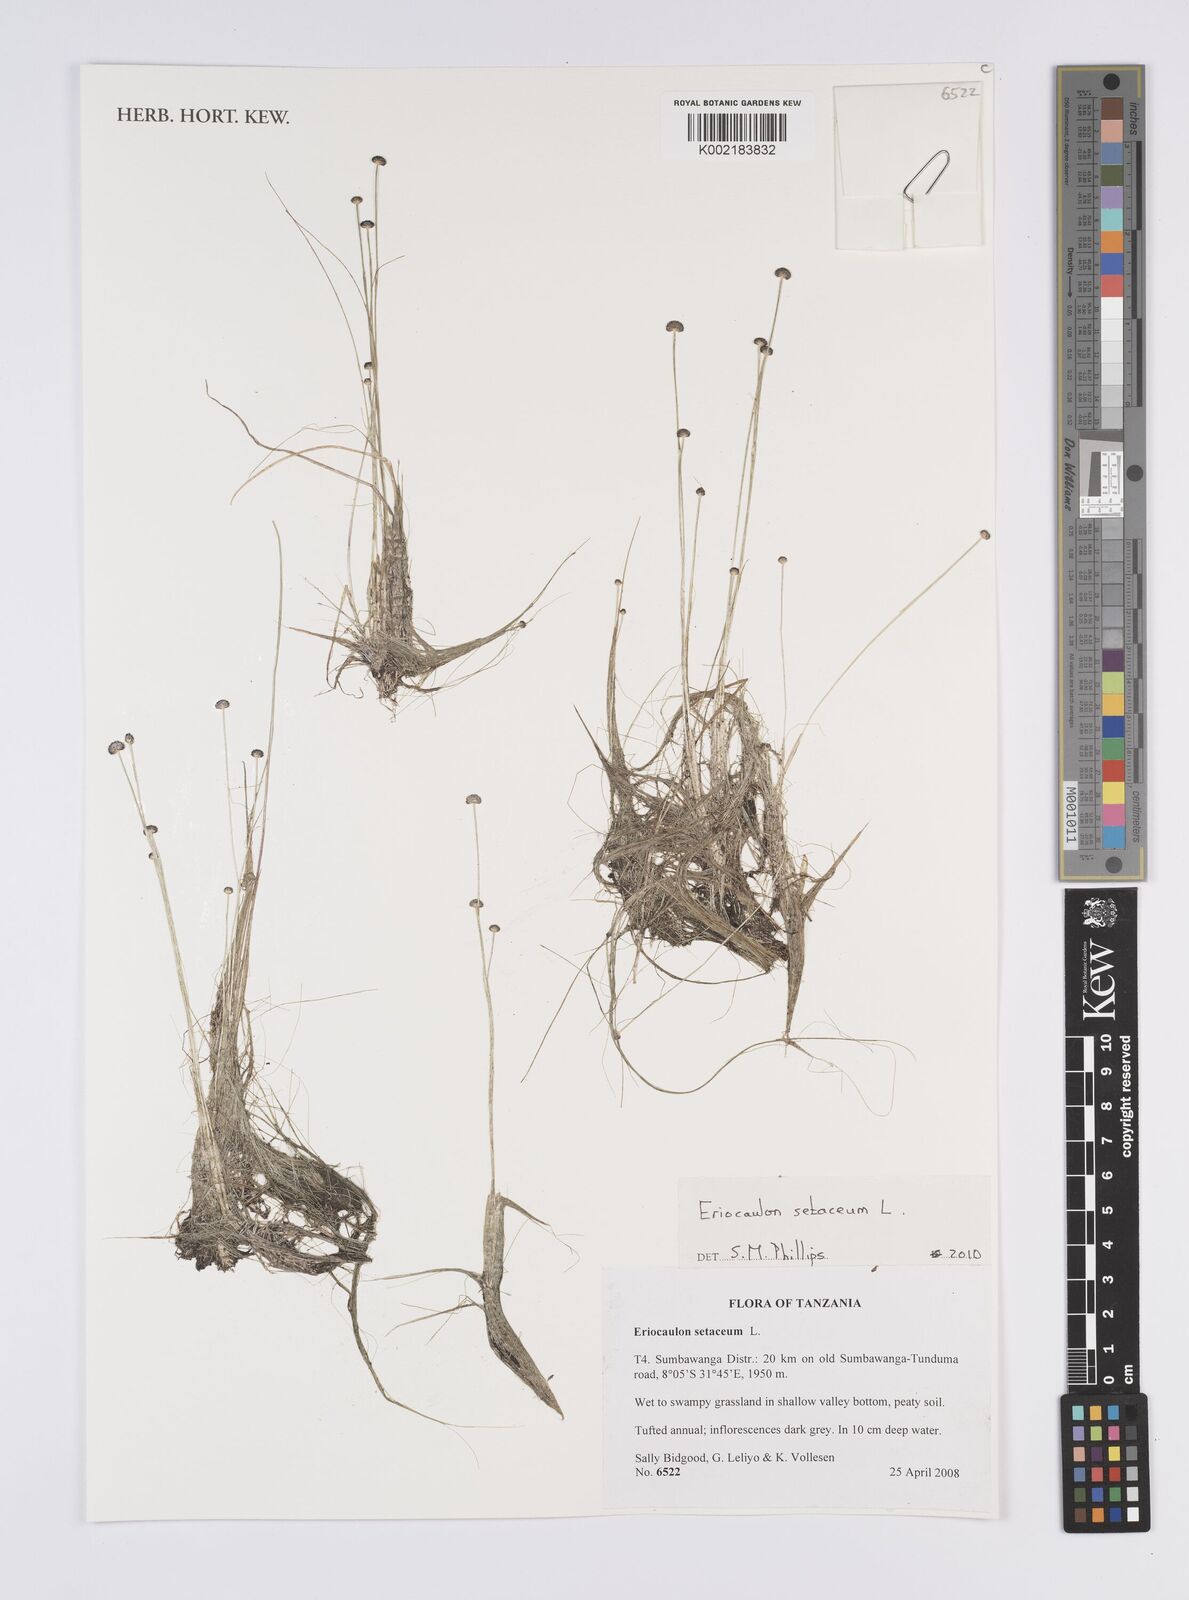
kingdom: Plantae
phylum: Tracheophyta
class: Liliopsida
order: Poales
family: Eriocaulaceae
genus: Eriocaulon
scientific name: Eriocaulon setaceum
